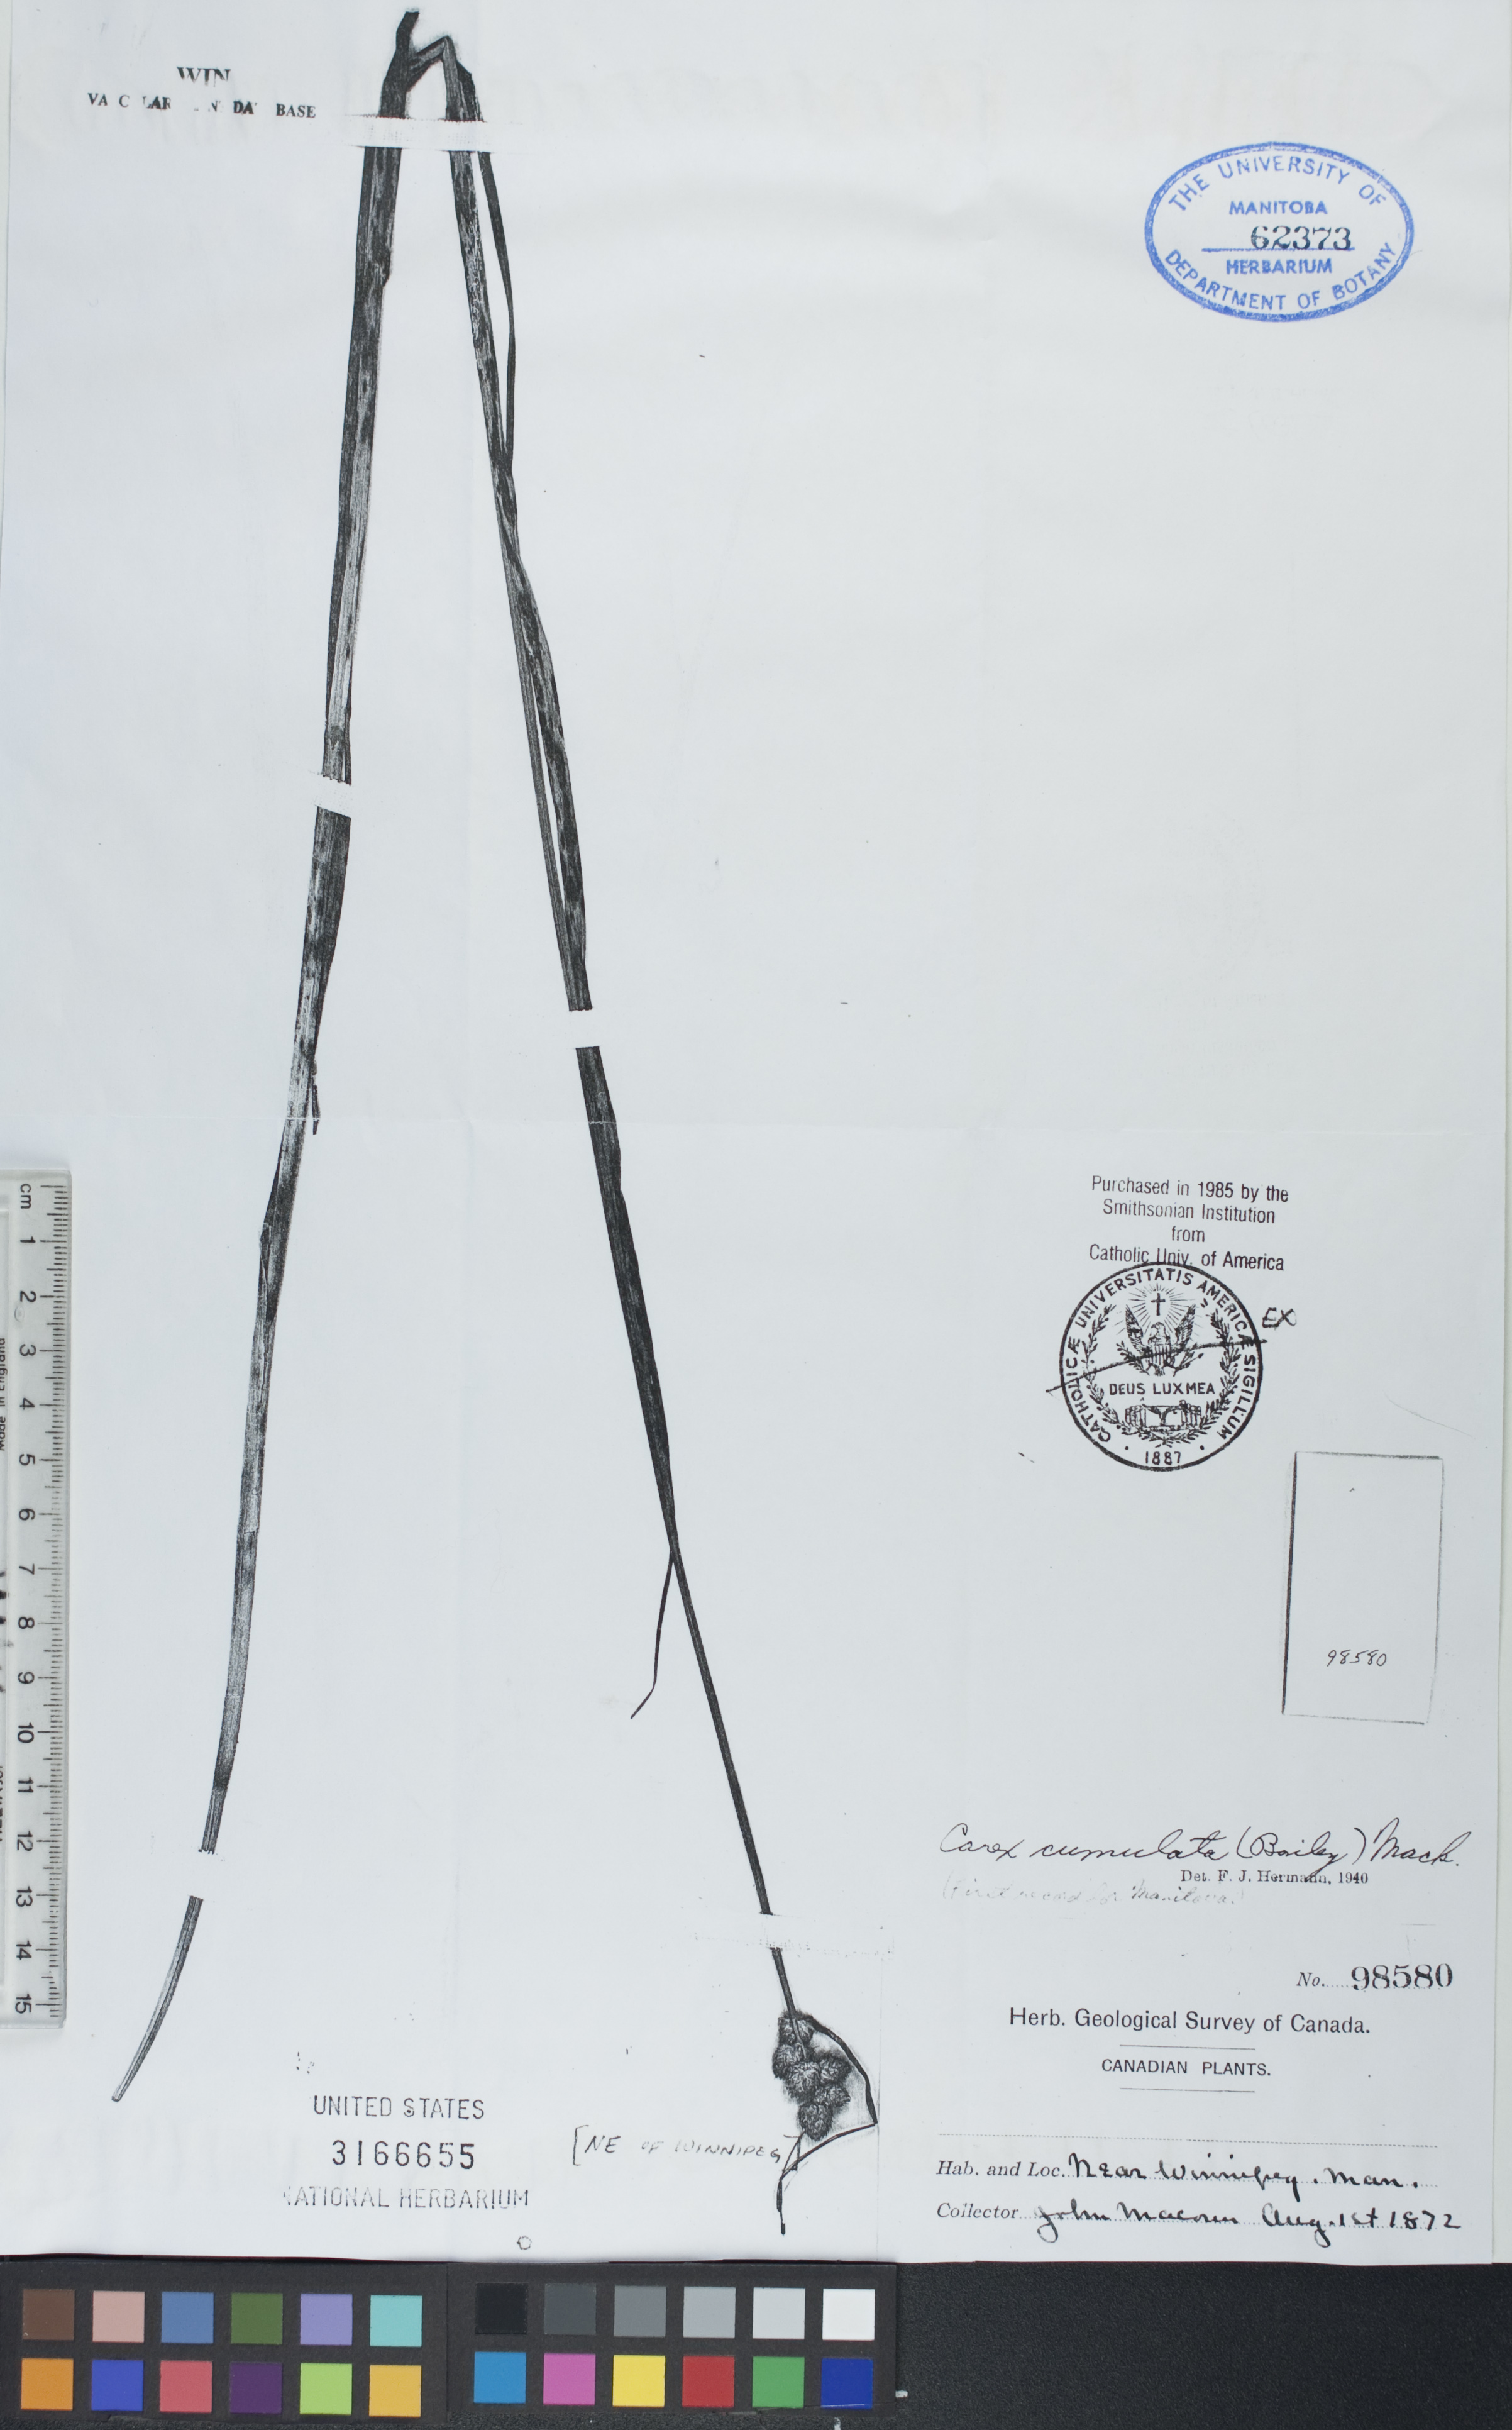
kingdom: Plantae
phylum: Tracheophyta
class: Liliopsida
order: Poales
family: Cyperaceae
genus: Carex
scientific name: Carex cumulata
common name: Accumulating sedge
